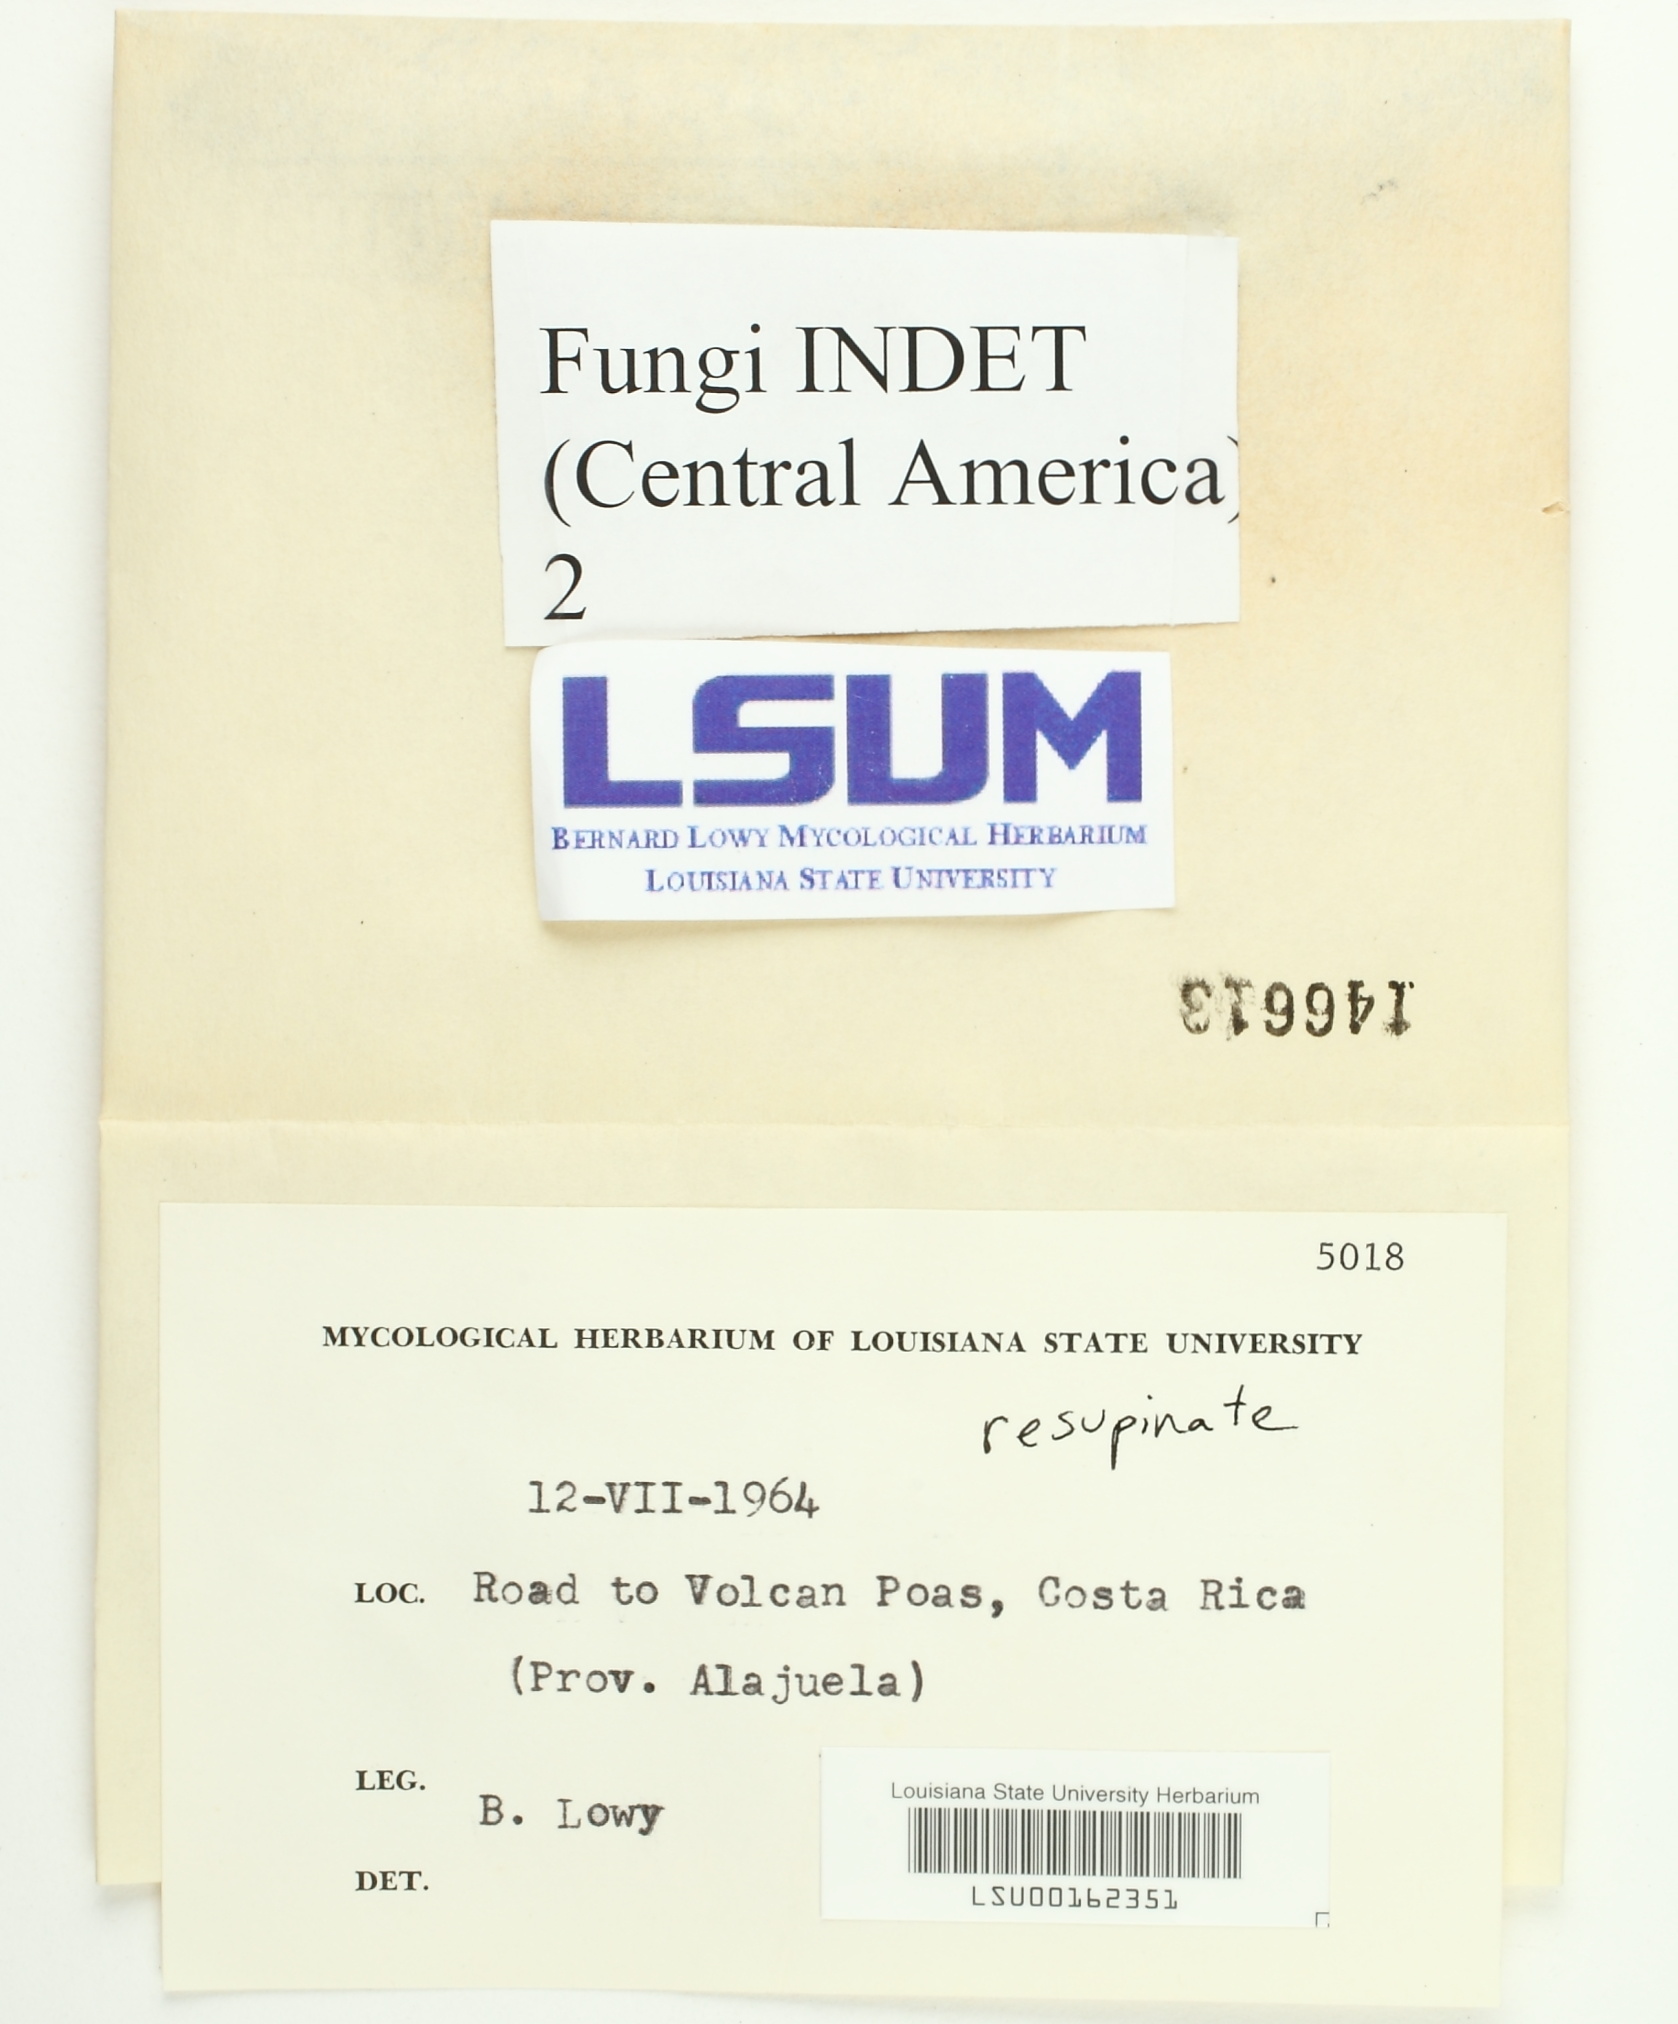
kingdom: Fungi
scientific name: Fungi
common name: Fungi
